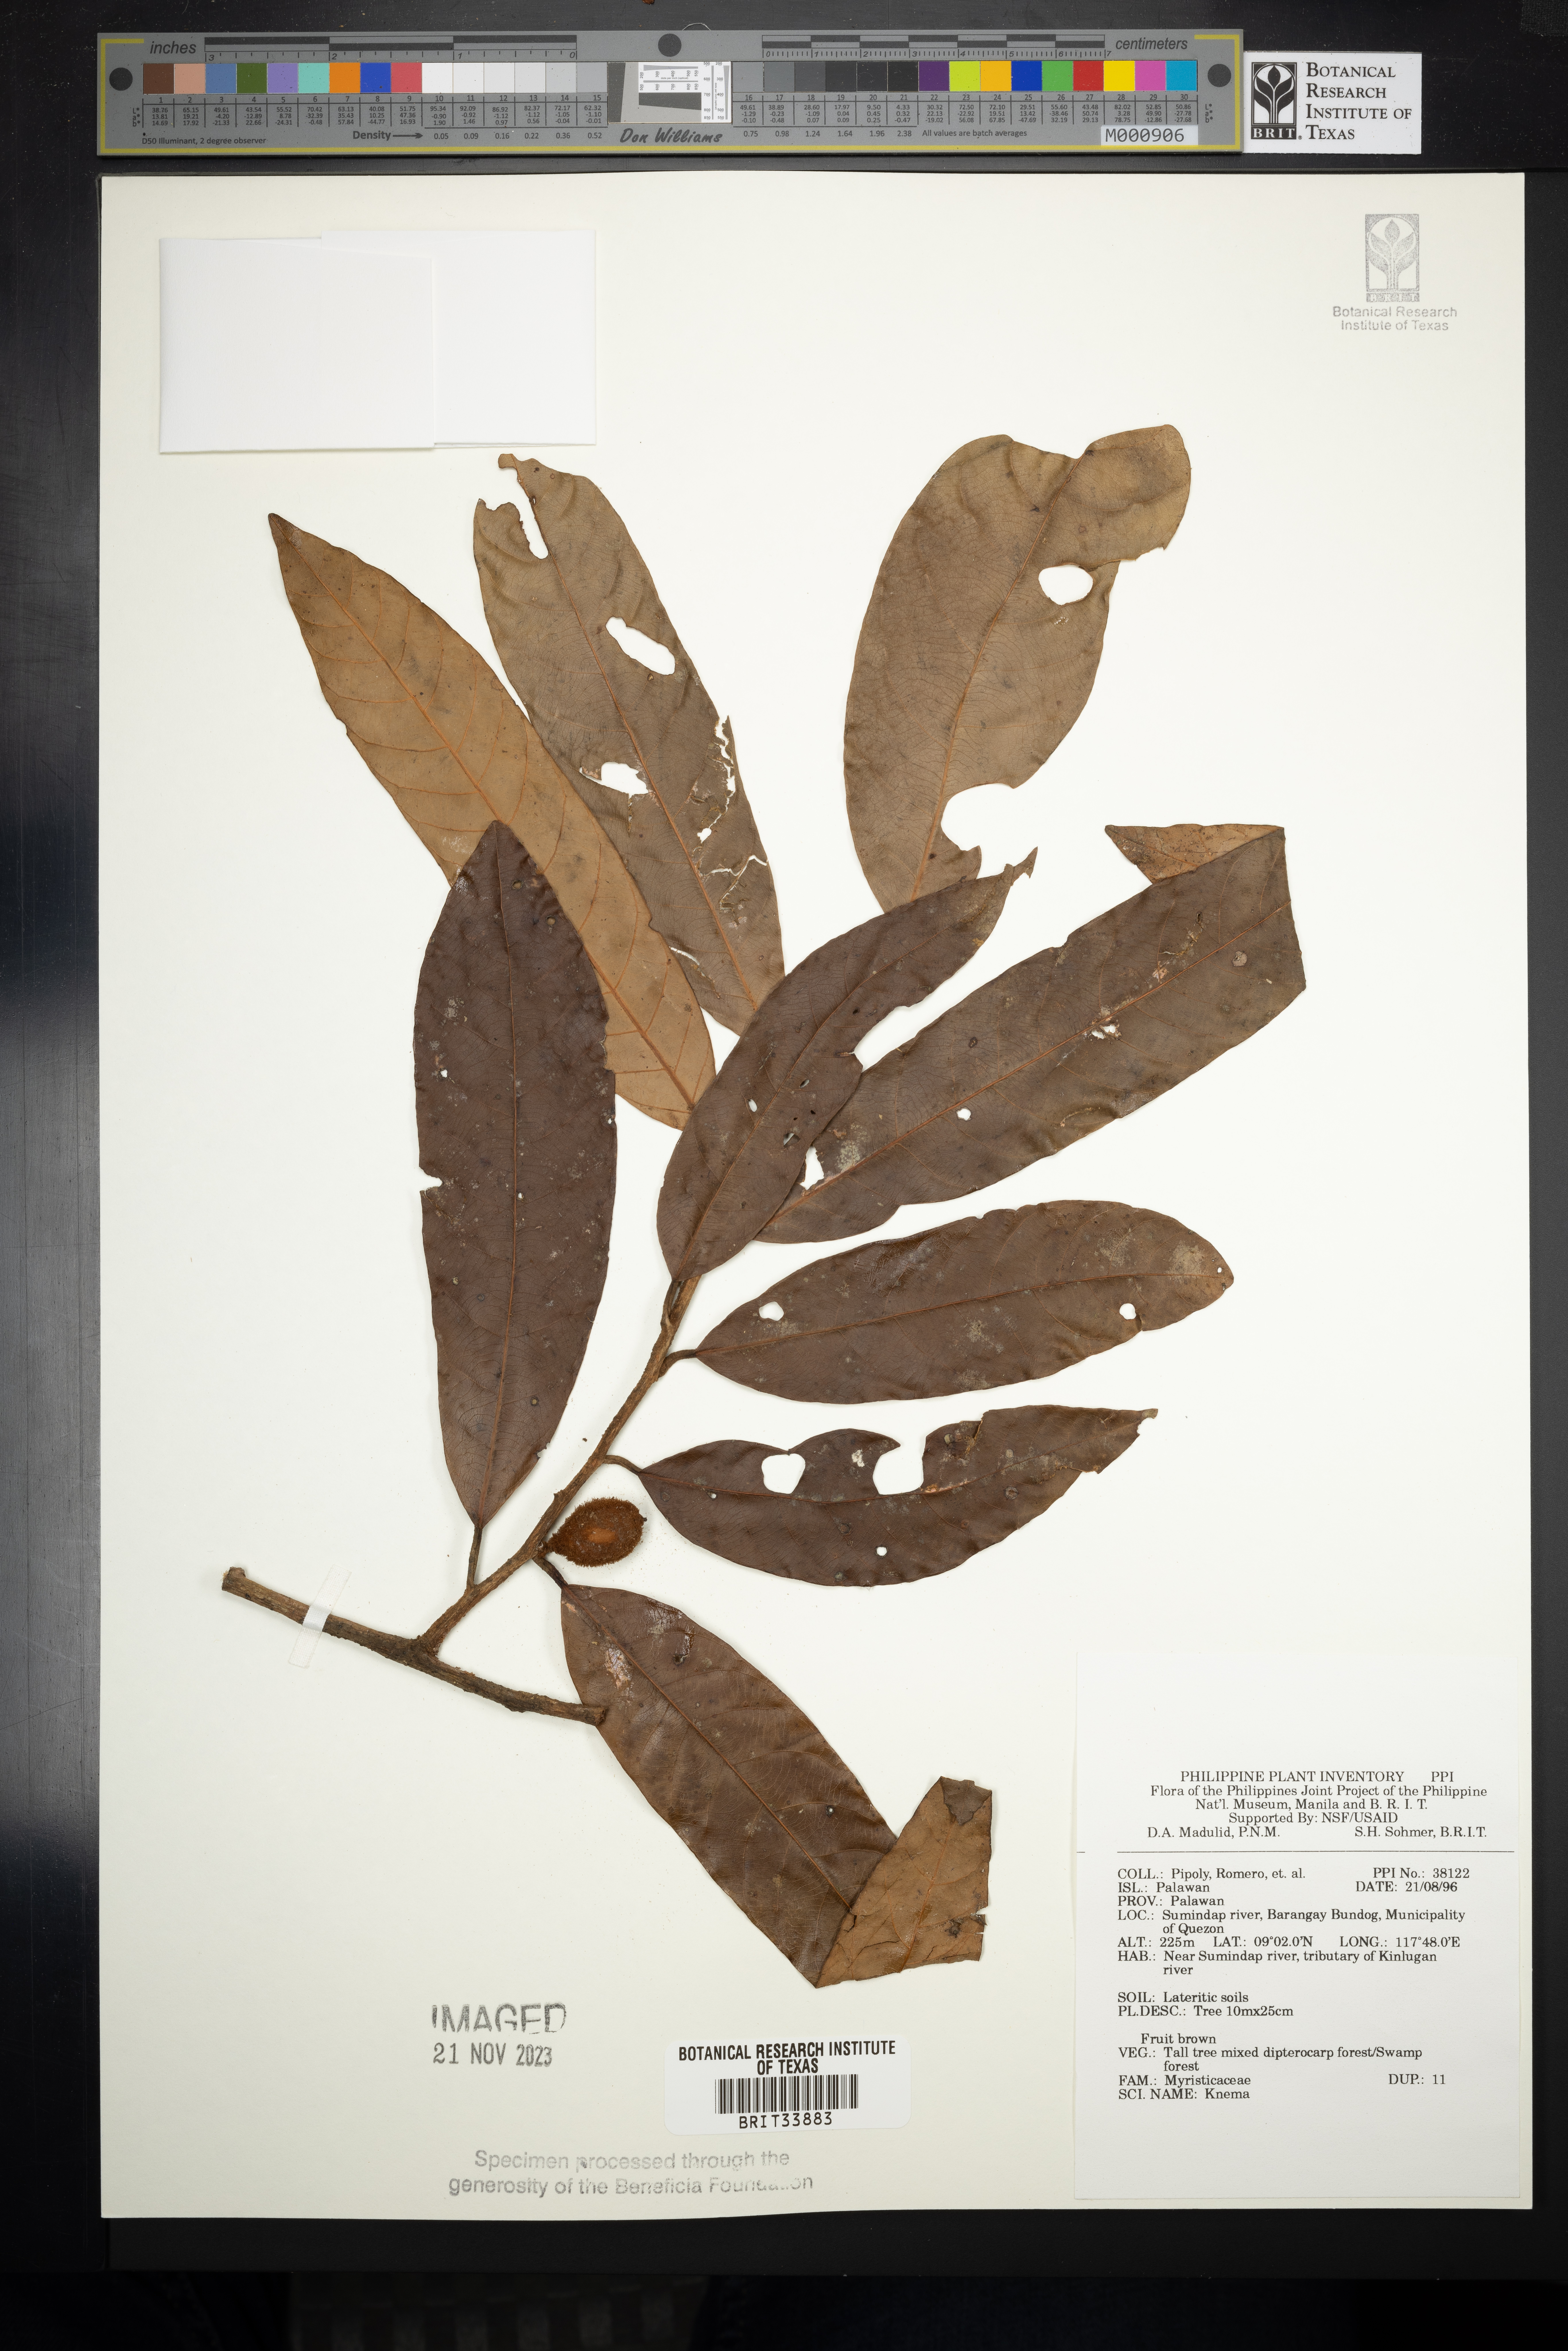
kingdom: Plantae
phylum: Tracheophyta
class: Magnoliopsida
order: Magnoliales
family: Myristicaceae
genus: Knema
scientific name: Knema
